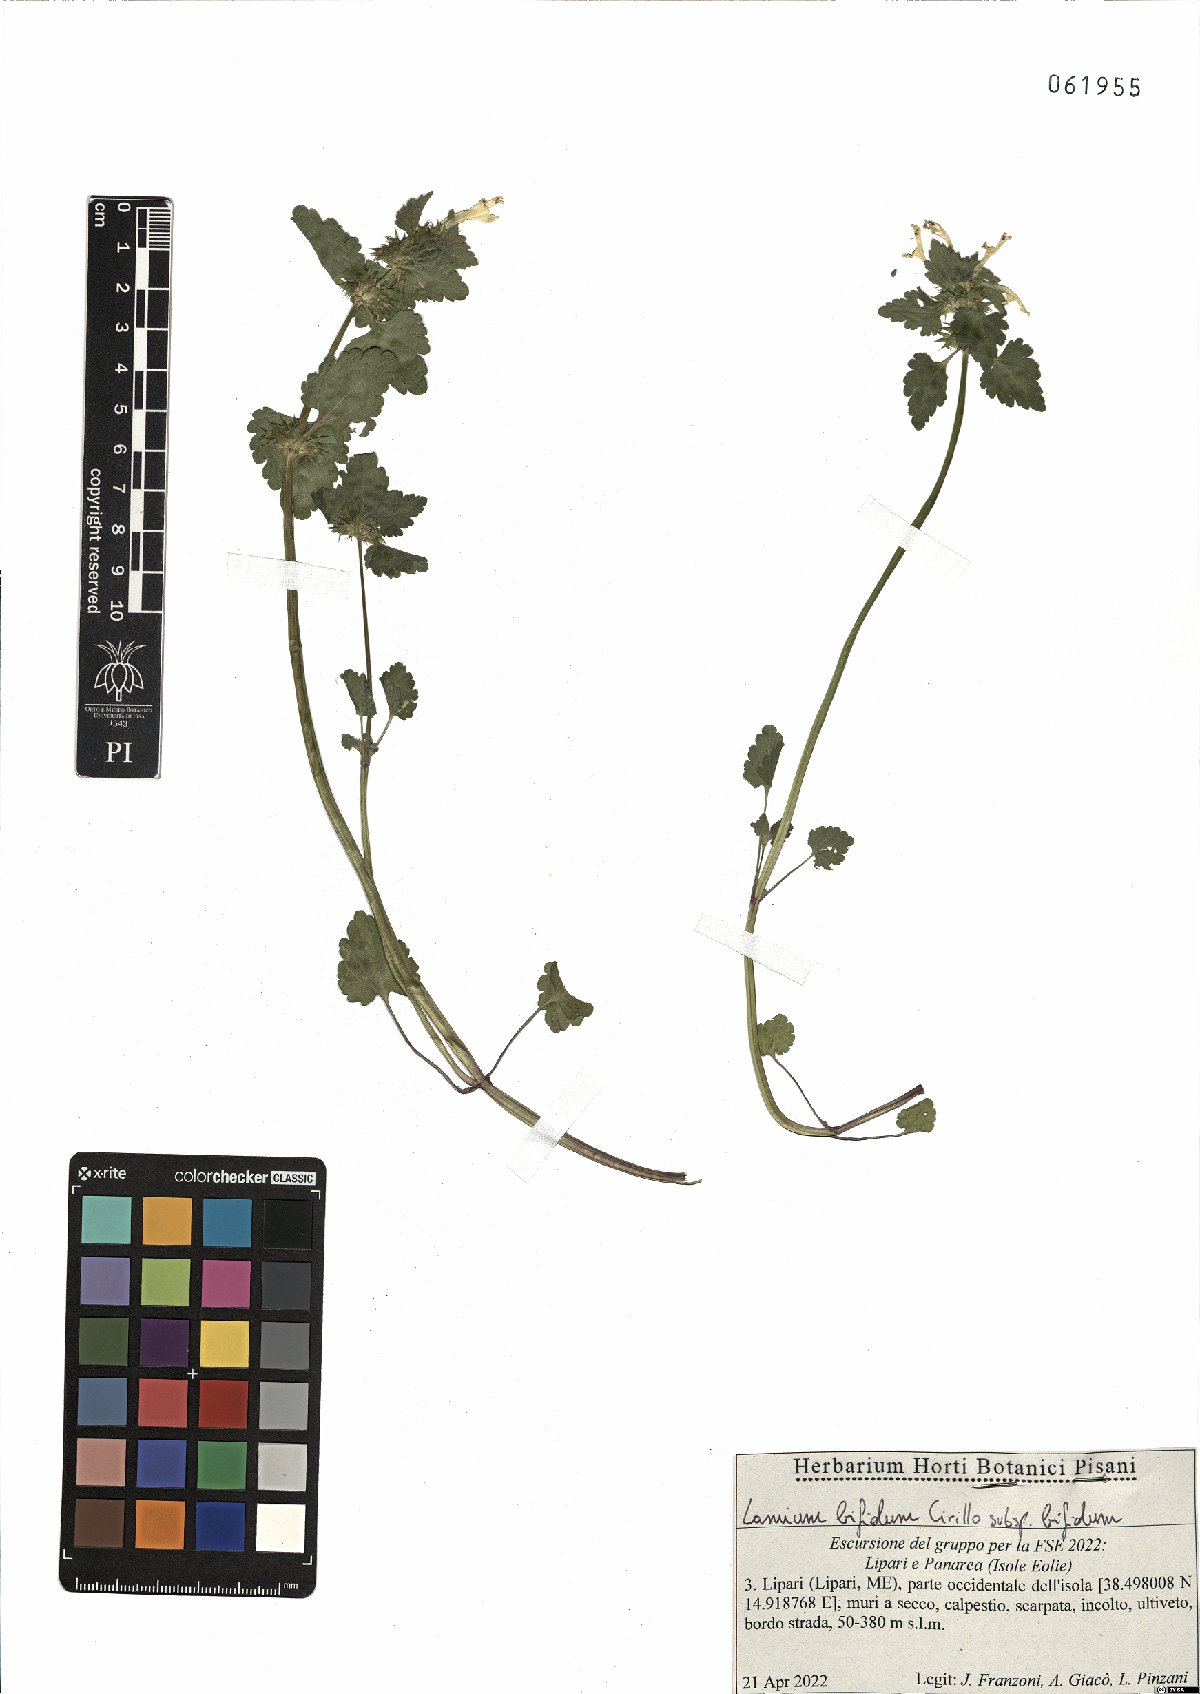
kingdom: Plantae
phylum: Tracheophyta
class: Magnoliopsida
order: Lamiales
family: Lamiaceae
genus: Lamium
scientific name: Lamium bifidum
